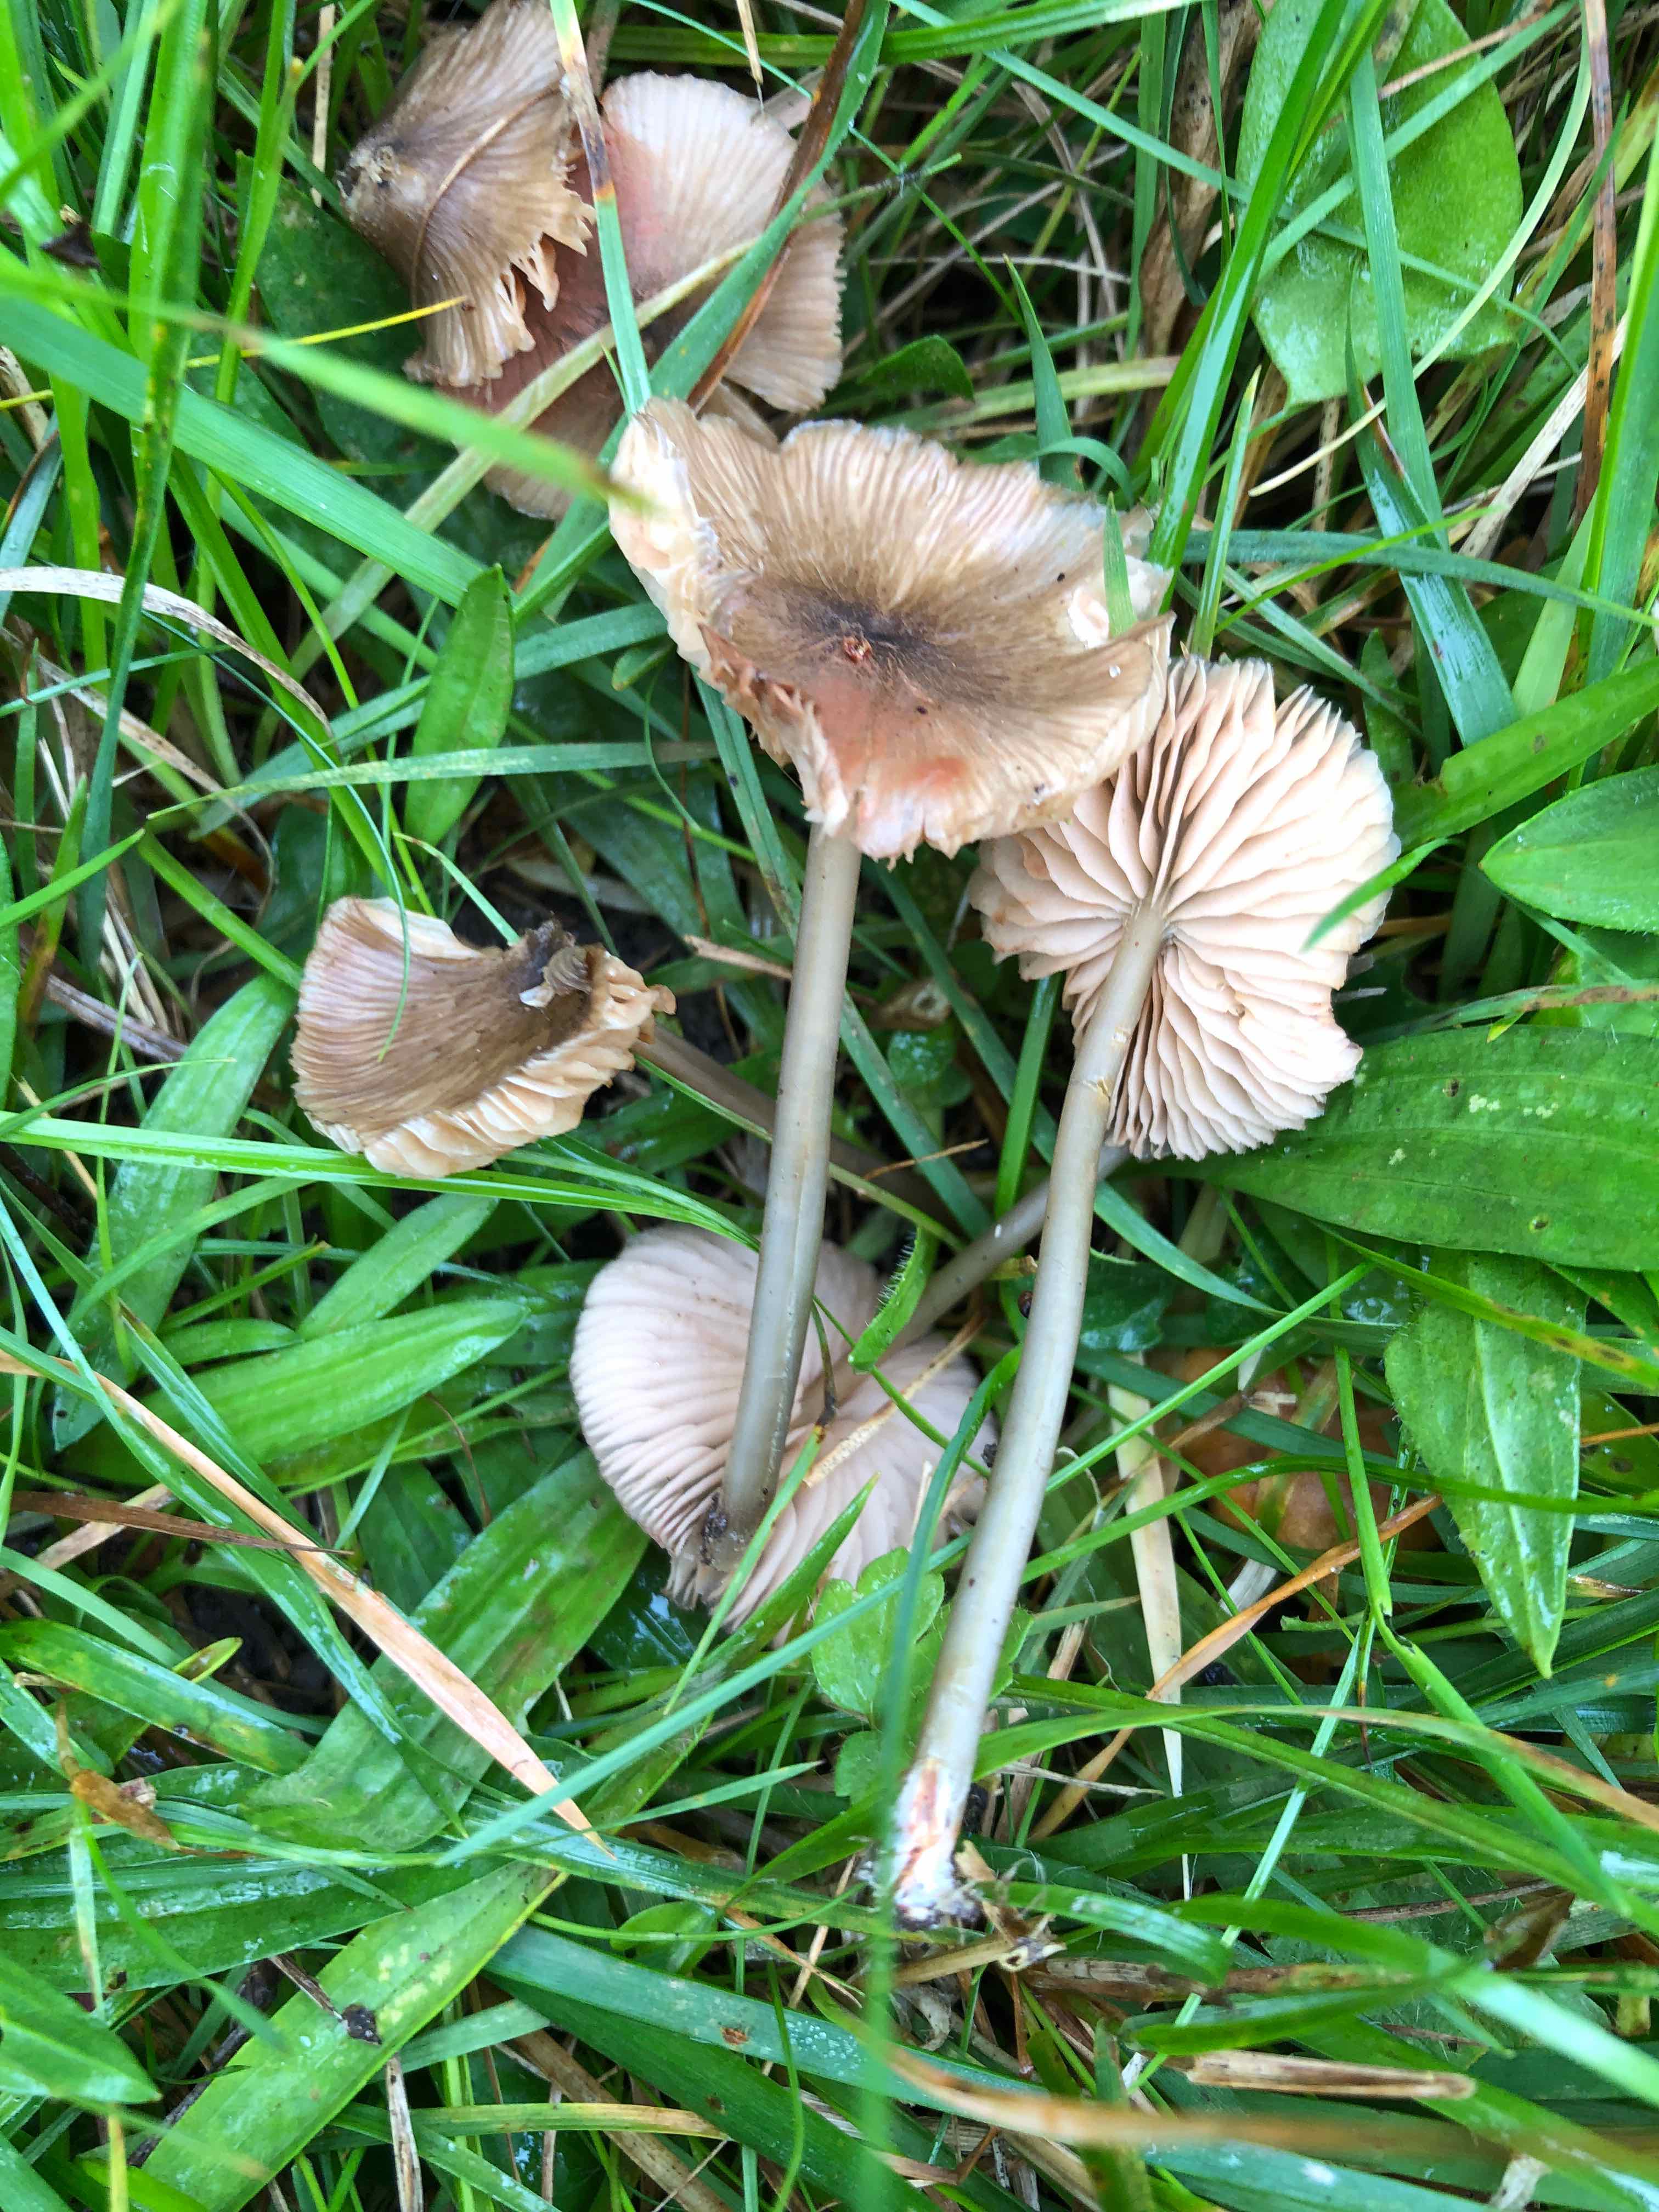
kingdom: Fungi
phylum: Basidiomycota
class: Agaricomycetes
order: Agaricales
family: Entolomataceae
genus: Entoloma
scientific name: Entoloma exile
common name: rødplettet rødblad
